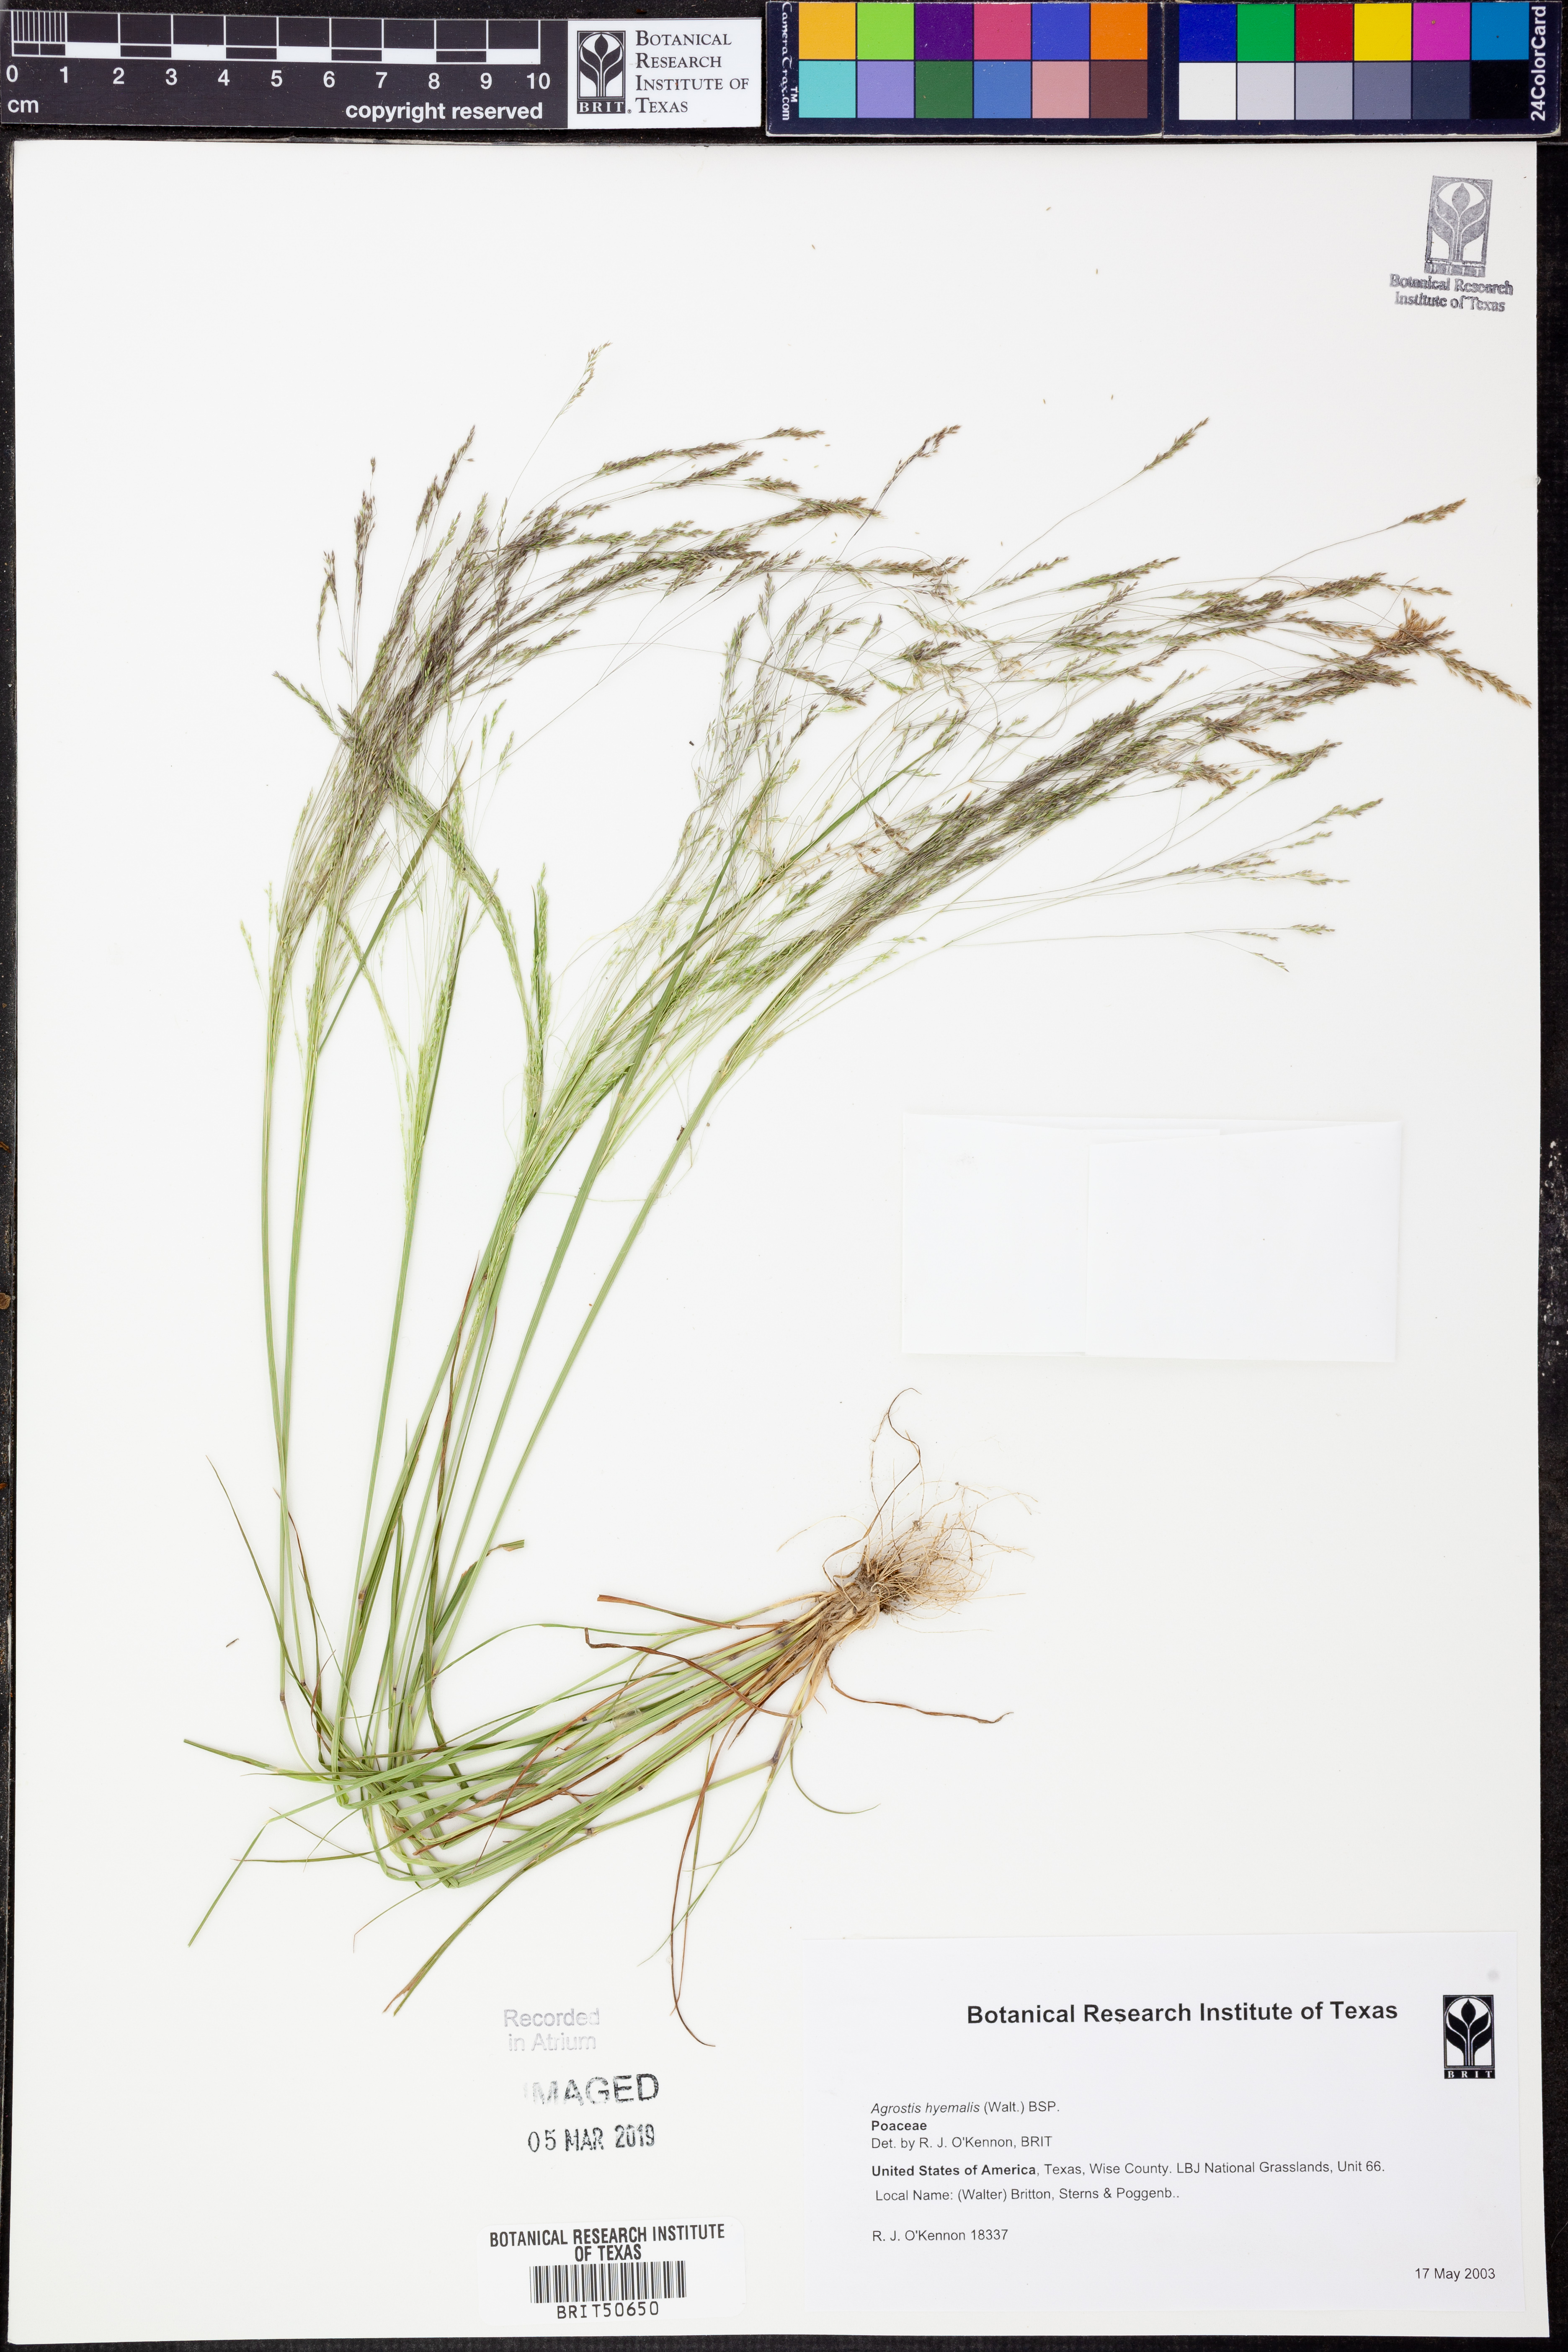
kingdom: Plantae
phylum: Tracheophyta
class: Liliopsida
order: Poales
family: Poaceae
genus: Agrostis
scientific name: Agrostis hyemalis
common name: Small bent
